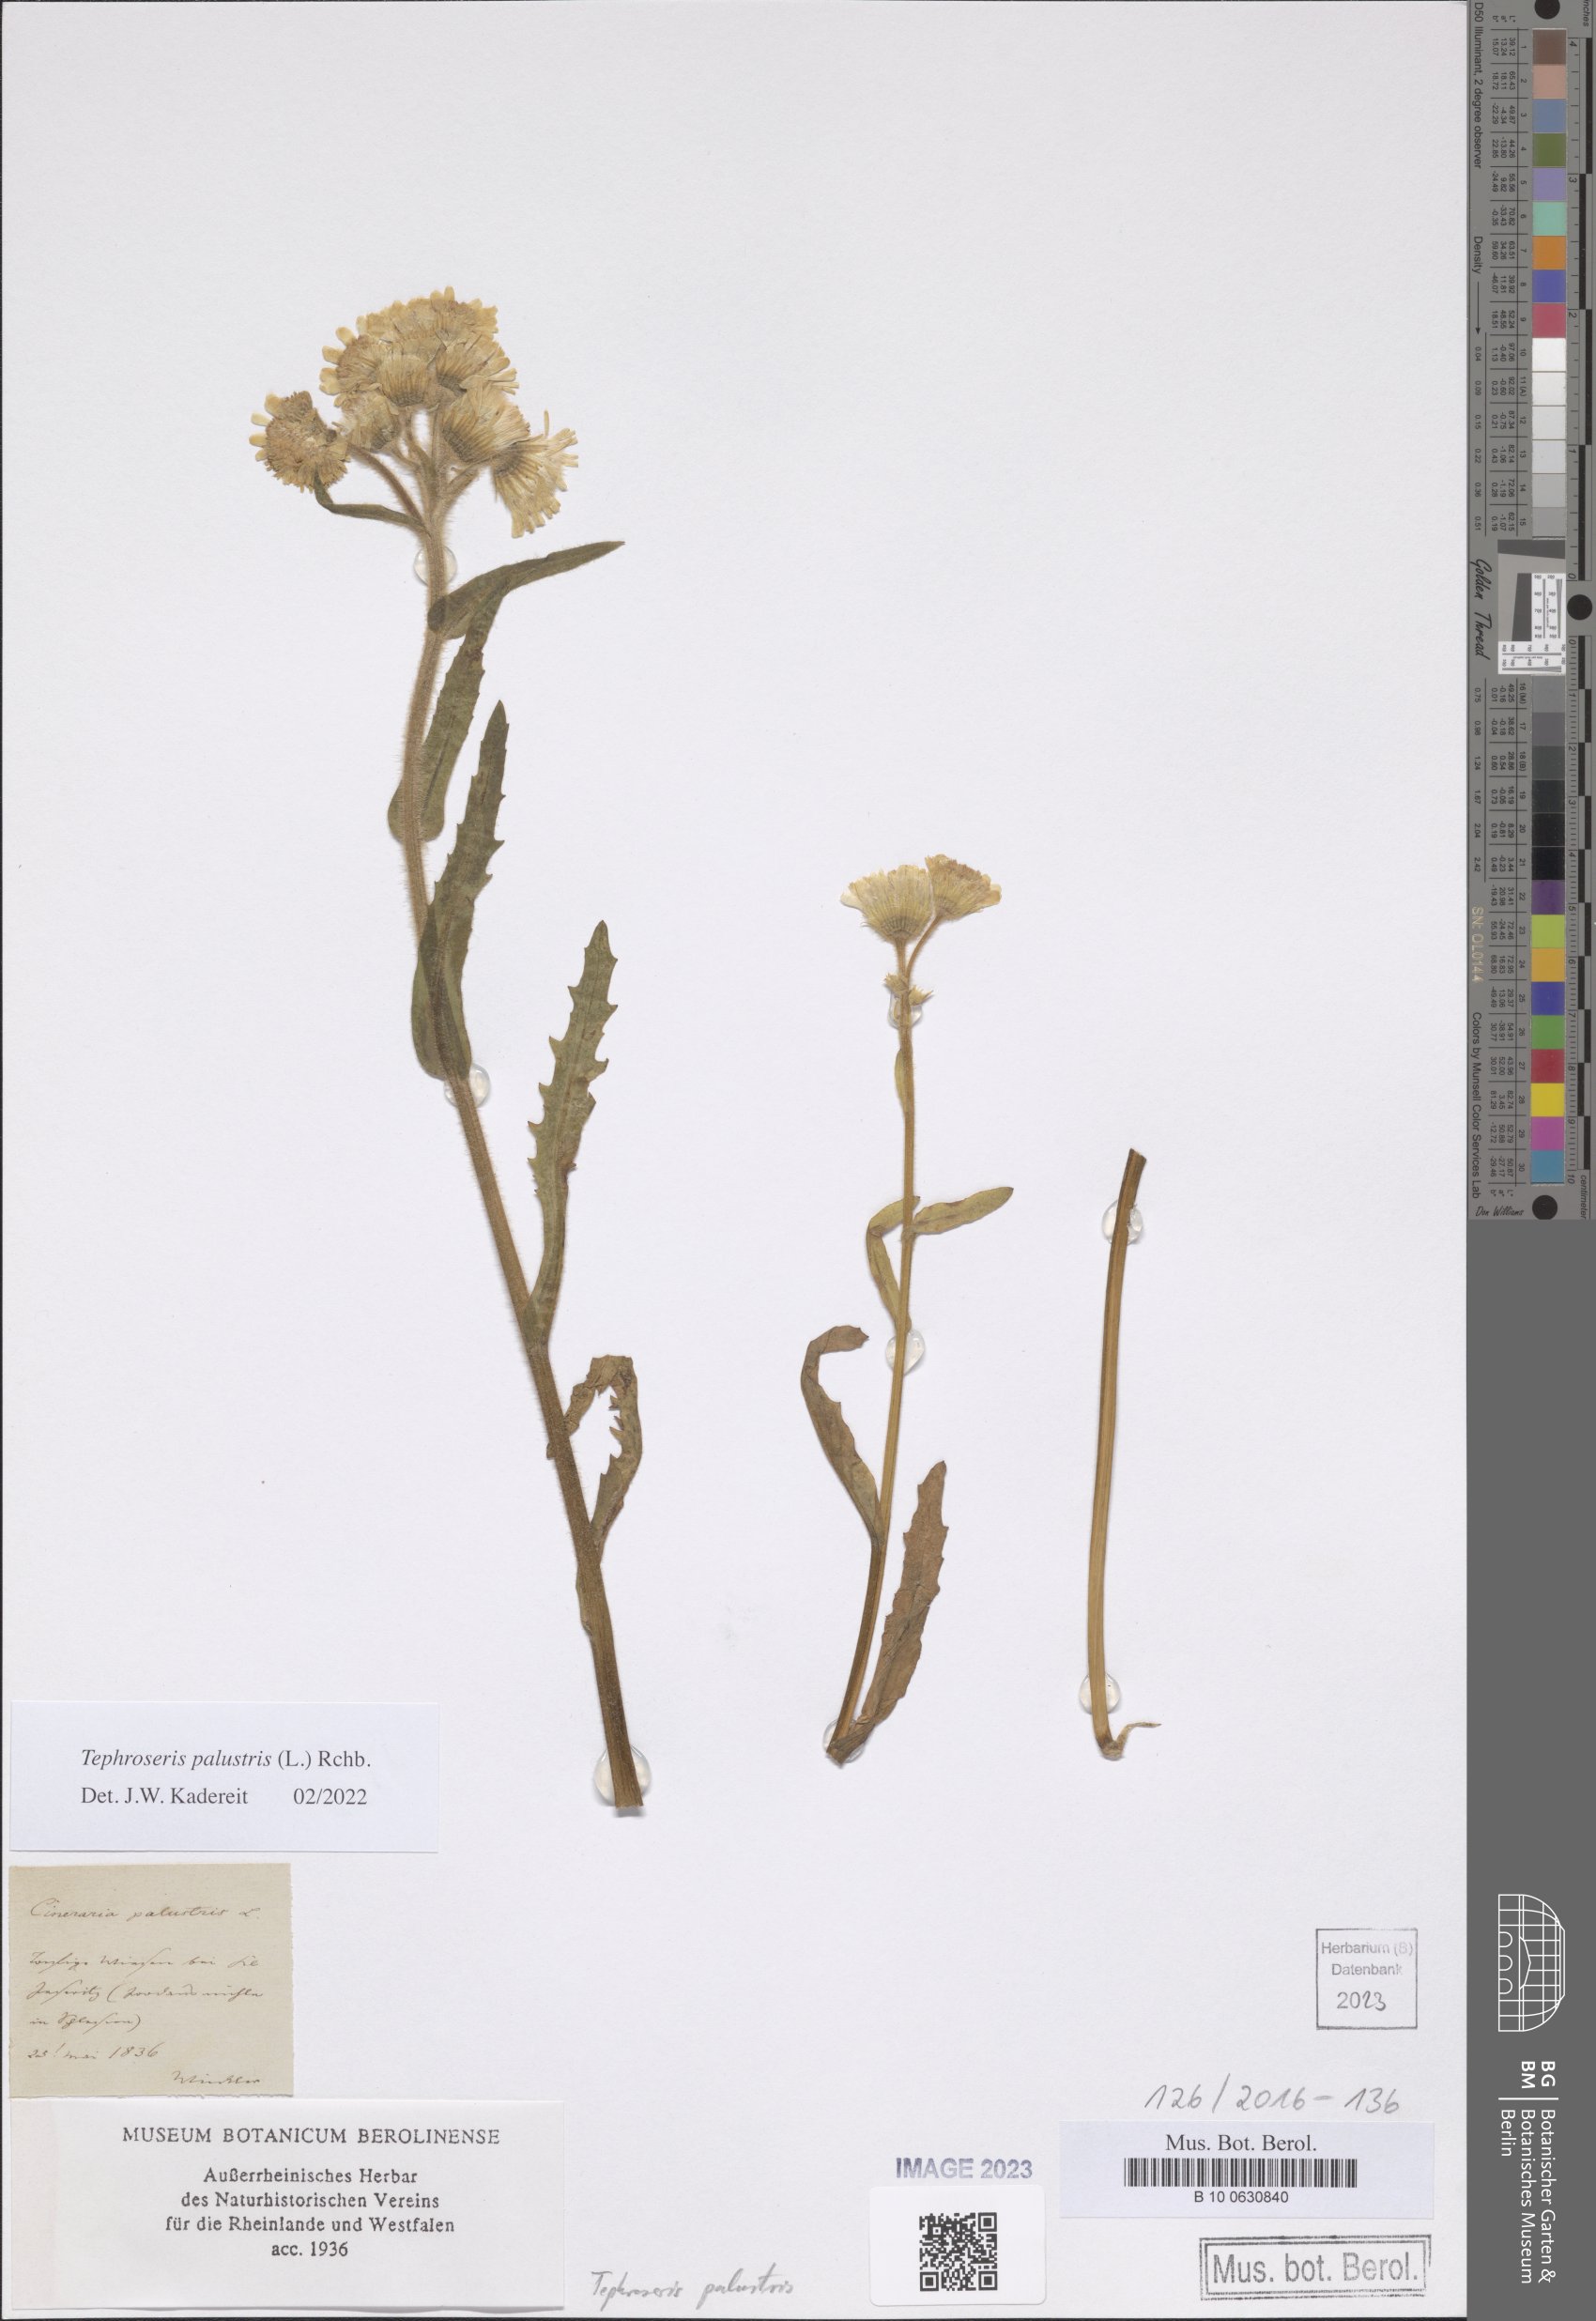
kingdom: Plantae
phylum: Tracheophyta
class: Magnoliopsida
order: Asterales
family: Asteraceae
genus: Tephroseris
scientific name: Tephroseris palustris
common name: Marsh fleawort
